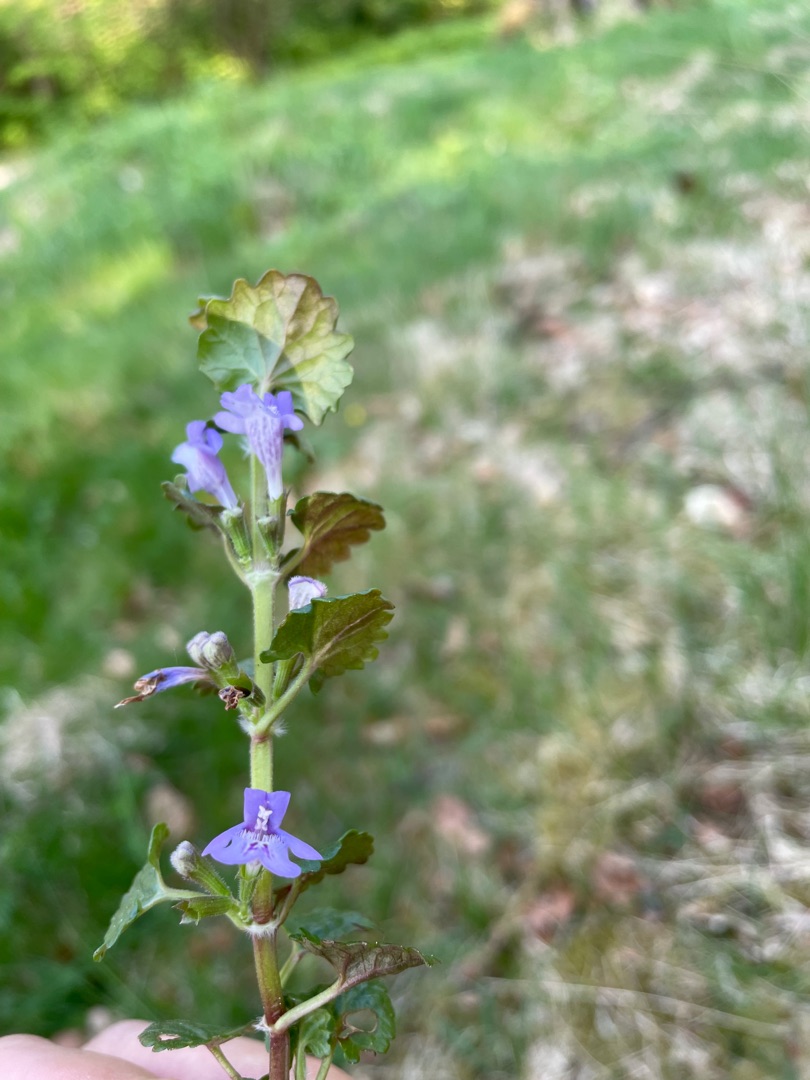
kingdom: Plantae
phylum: Tracheophyta
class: Magnoliopsida
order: Lamiales
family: Lamiaceae
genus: Glechoma
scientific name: Glechoma hederacea
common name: Korsknap
